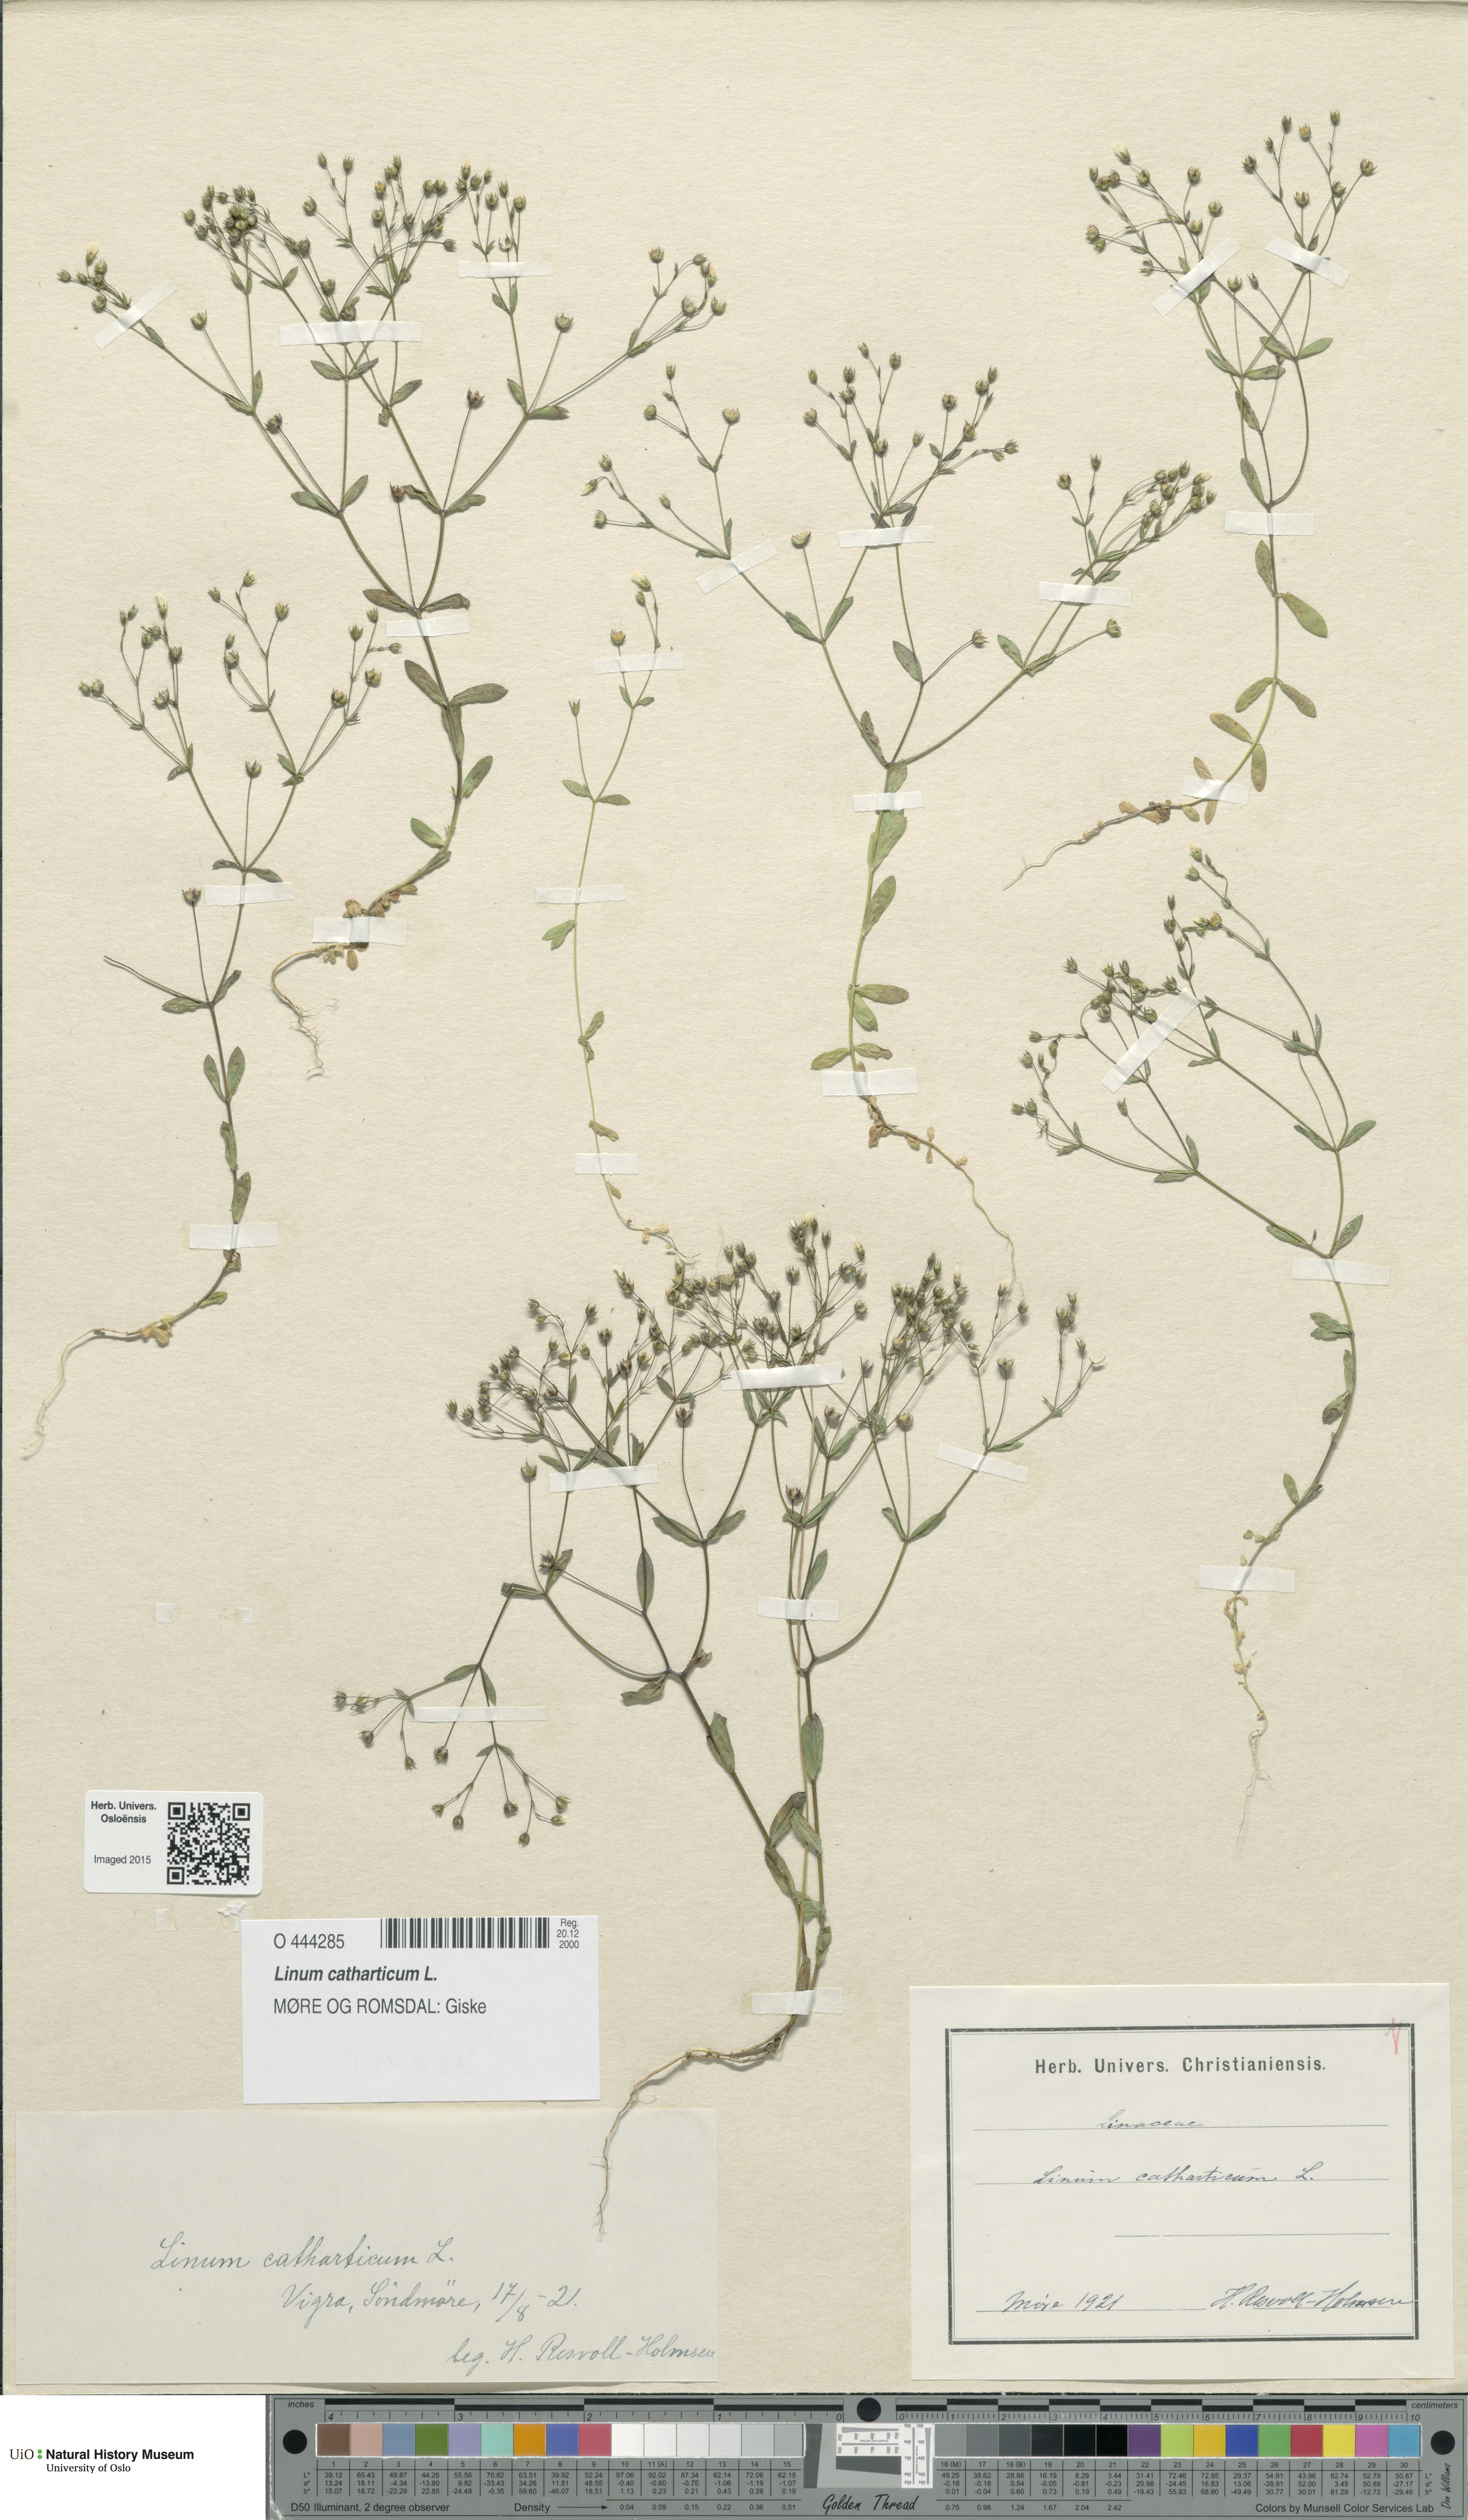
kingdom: Plantae
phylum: Tracheophyta
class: Magnoliopsida
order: Malpighiales
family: Linaceae
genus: Linum
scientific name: Linum catharticum
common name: Fairy flax
